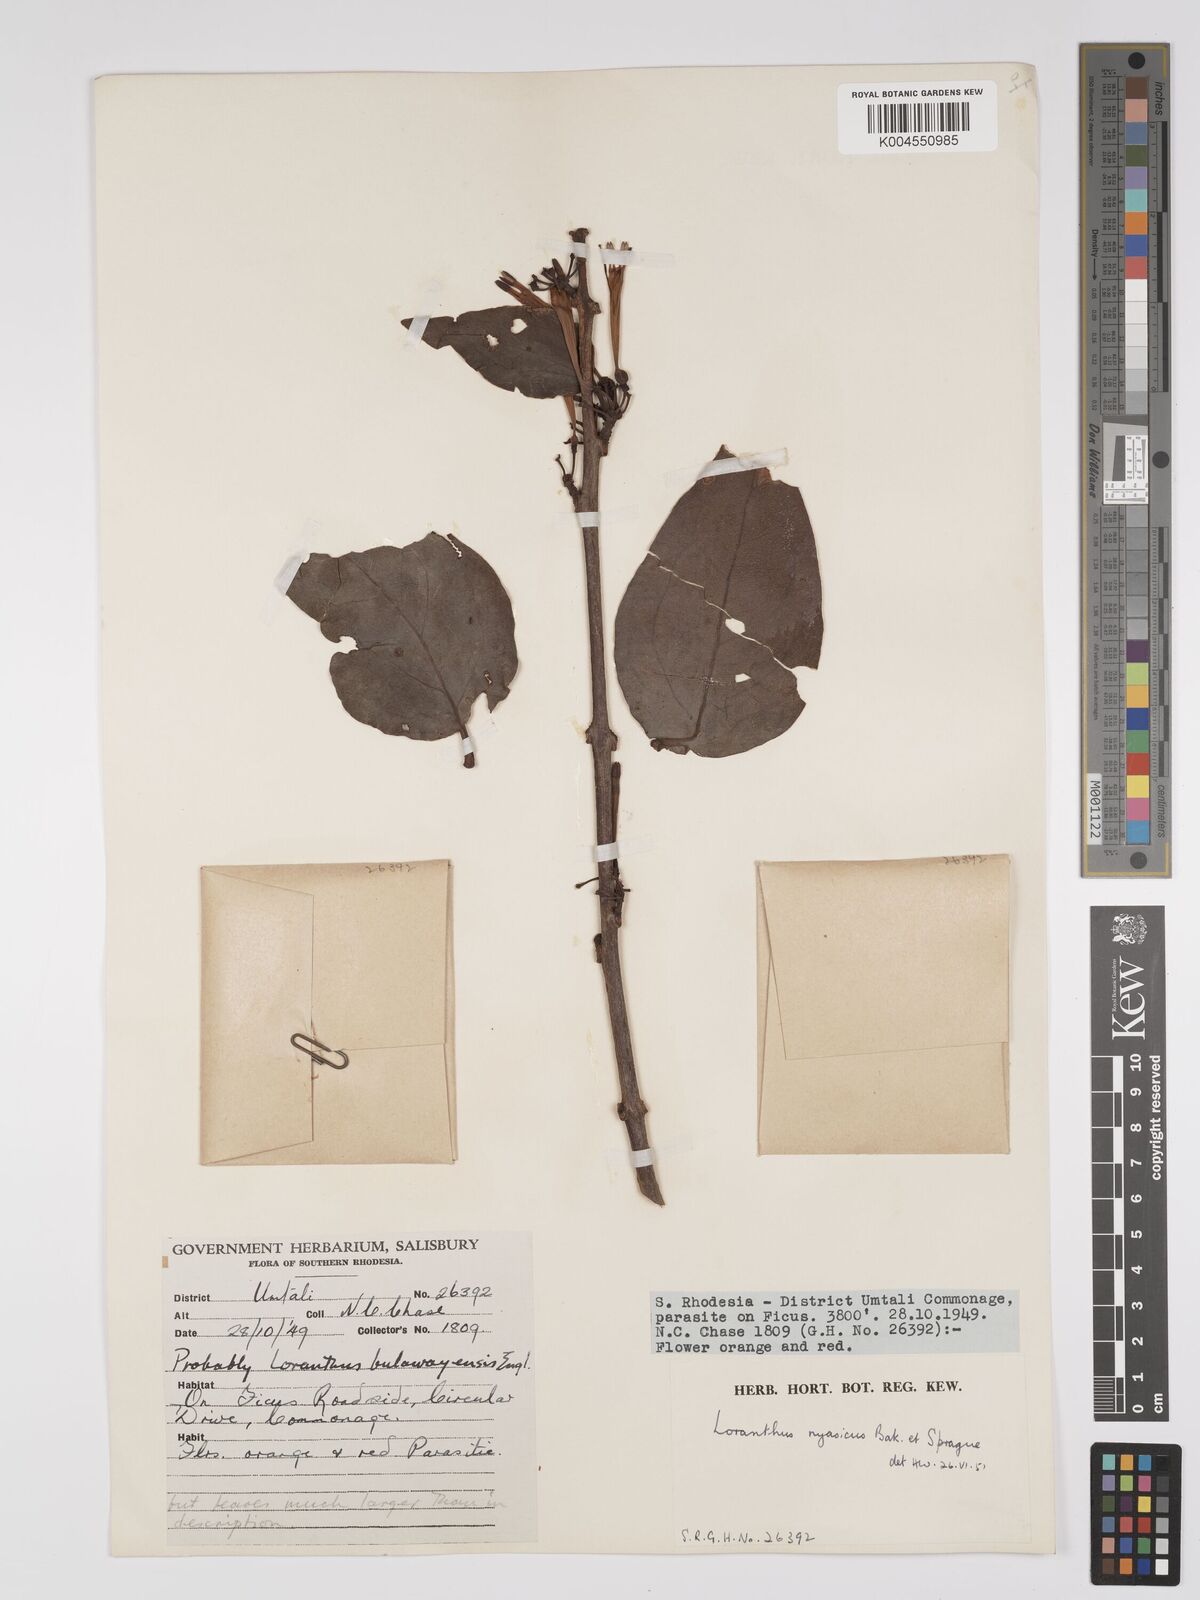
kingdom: Plantae
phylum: Tracheophyta
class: Magnoliopsida
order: Santalales
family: Loranthaceae
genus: Agelanthus
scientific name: Agelanthus flammeus
